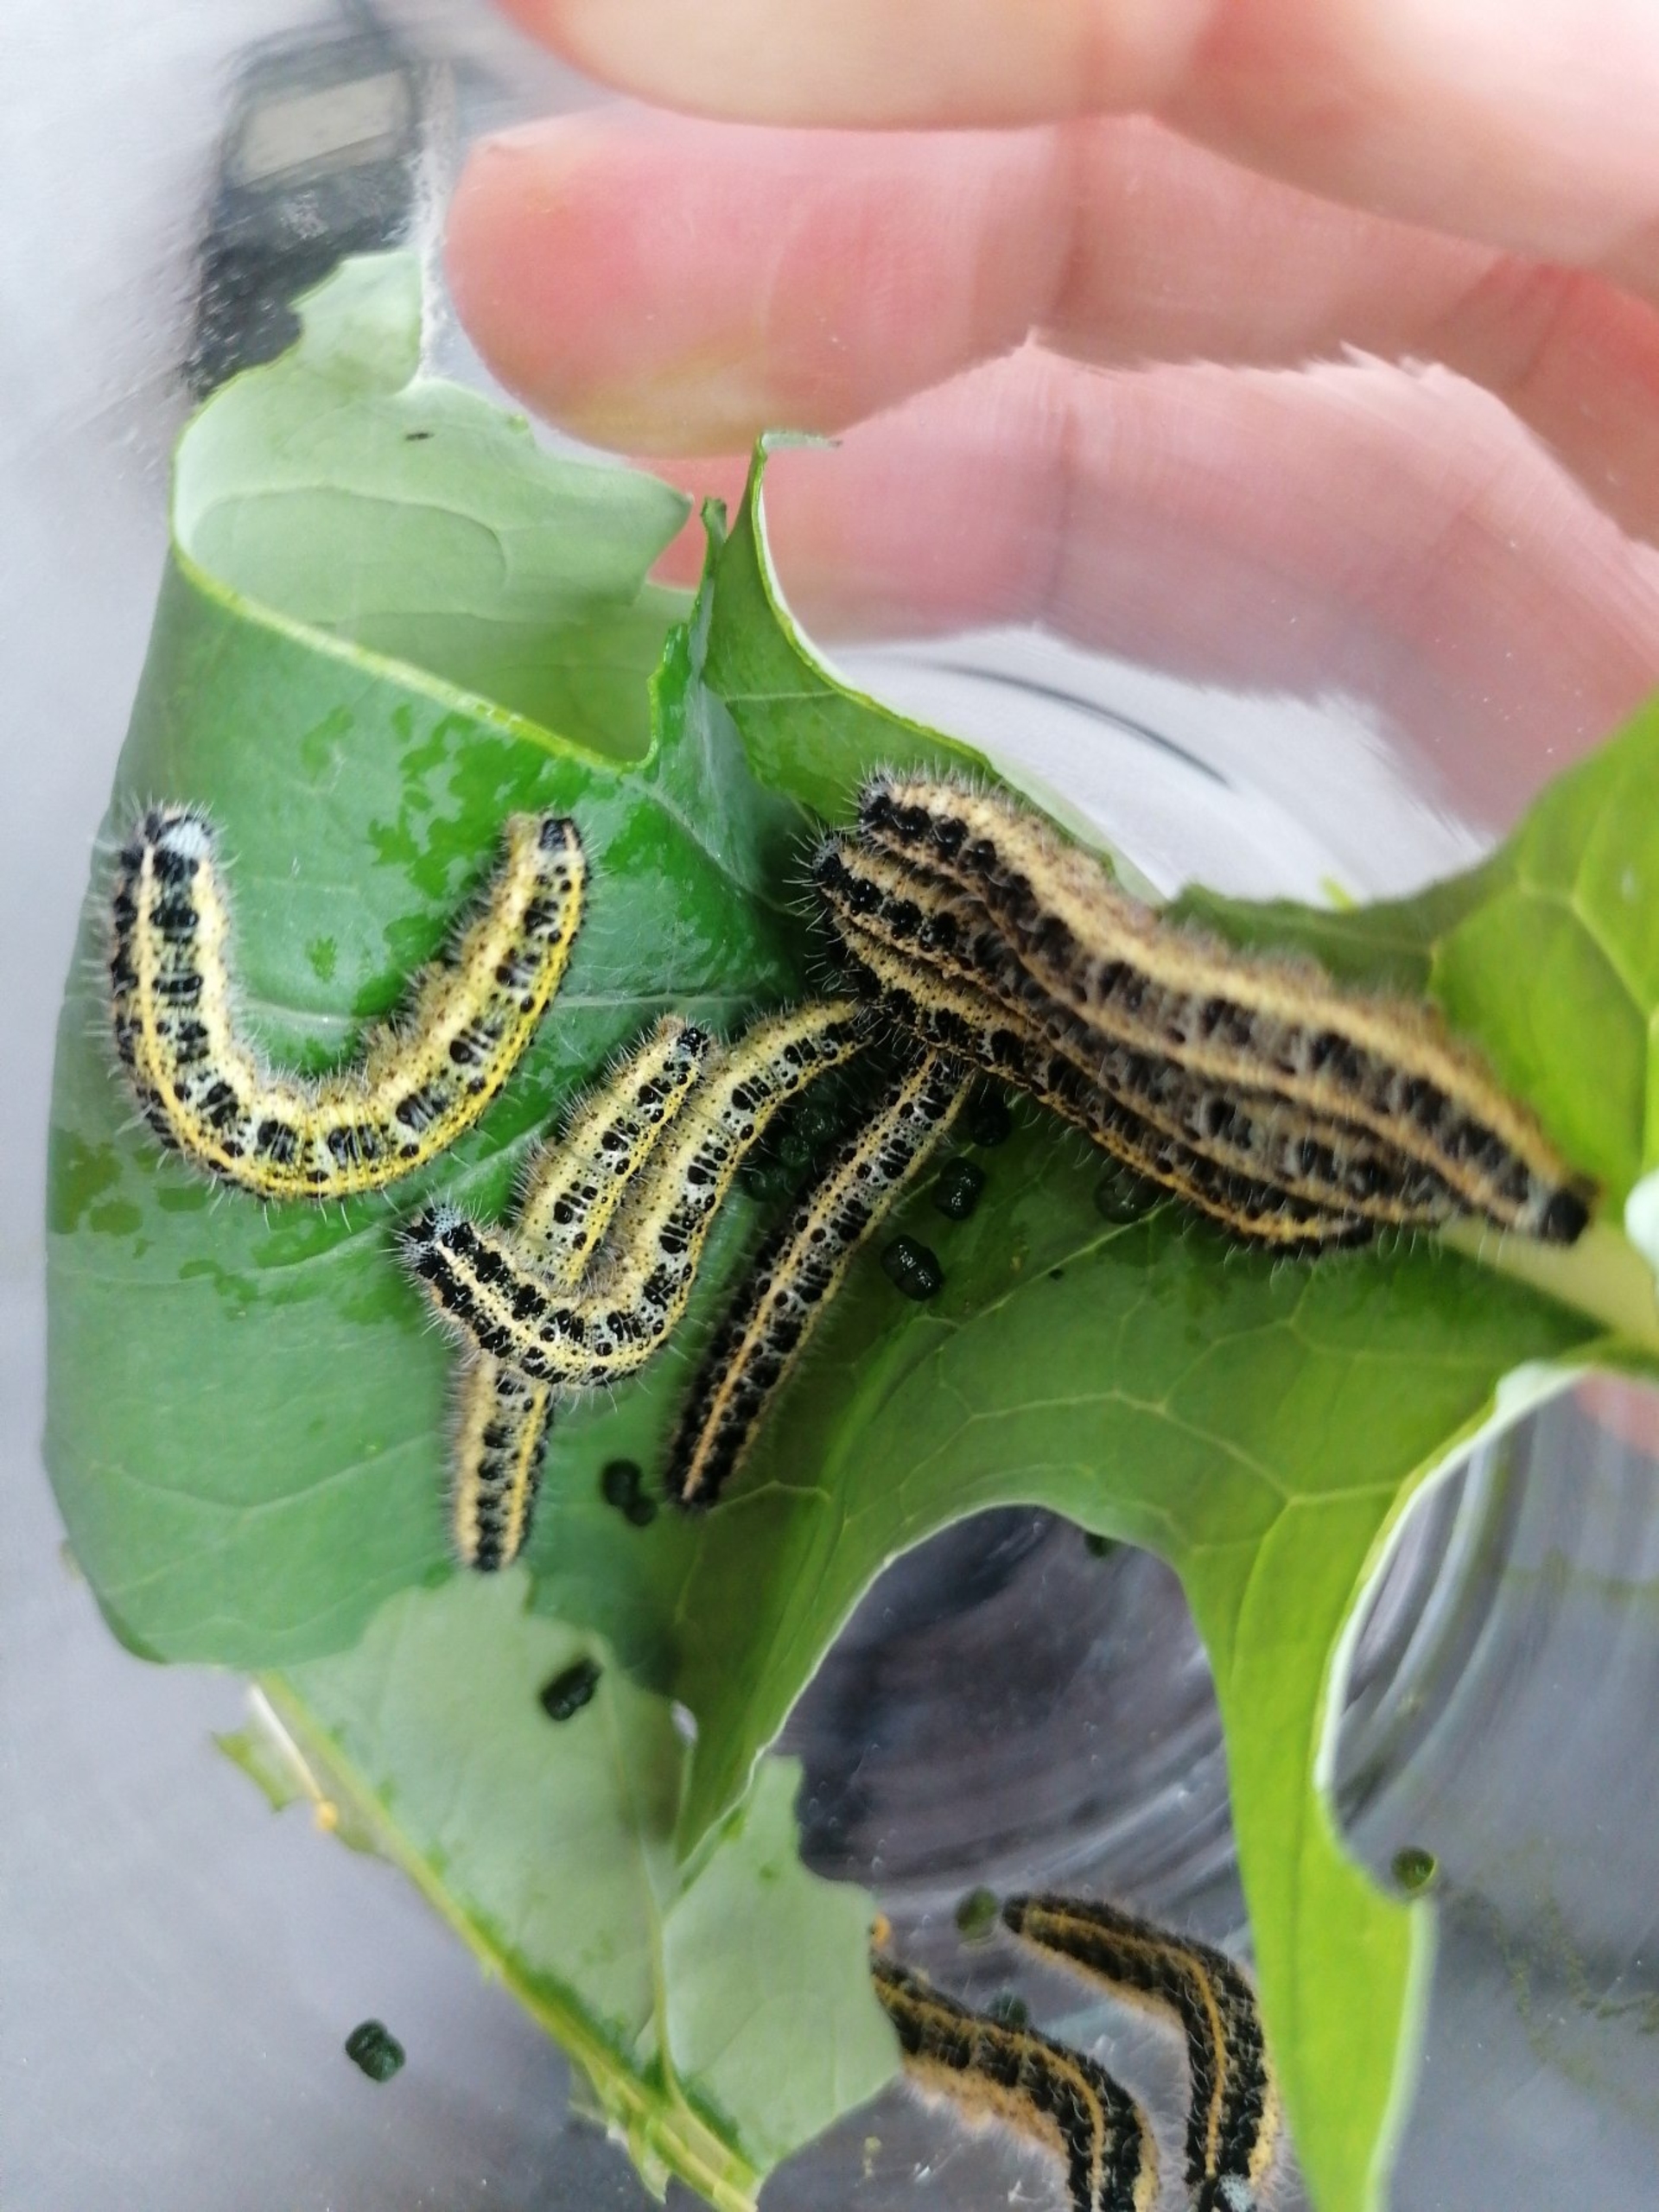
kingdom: Animalia
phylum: Arthropoda
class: Insecta
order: Lepidoptera
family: Pieridae
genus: Pieris
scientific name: Pieris brassicae
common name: Stor kålsommerfugl
